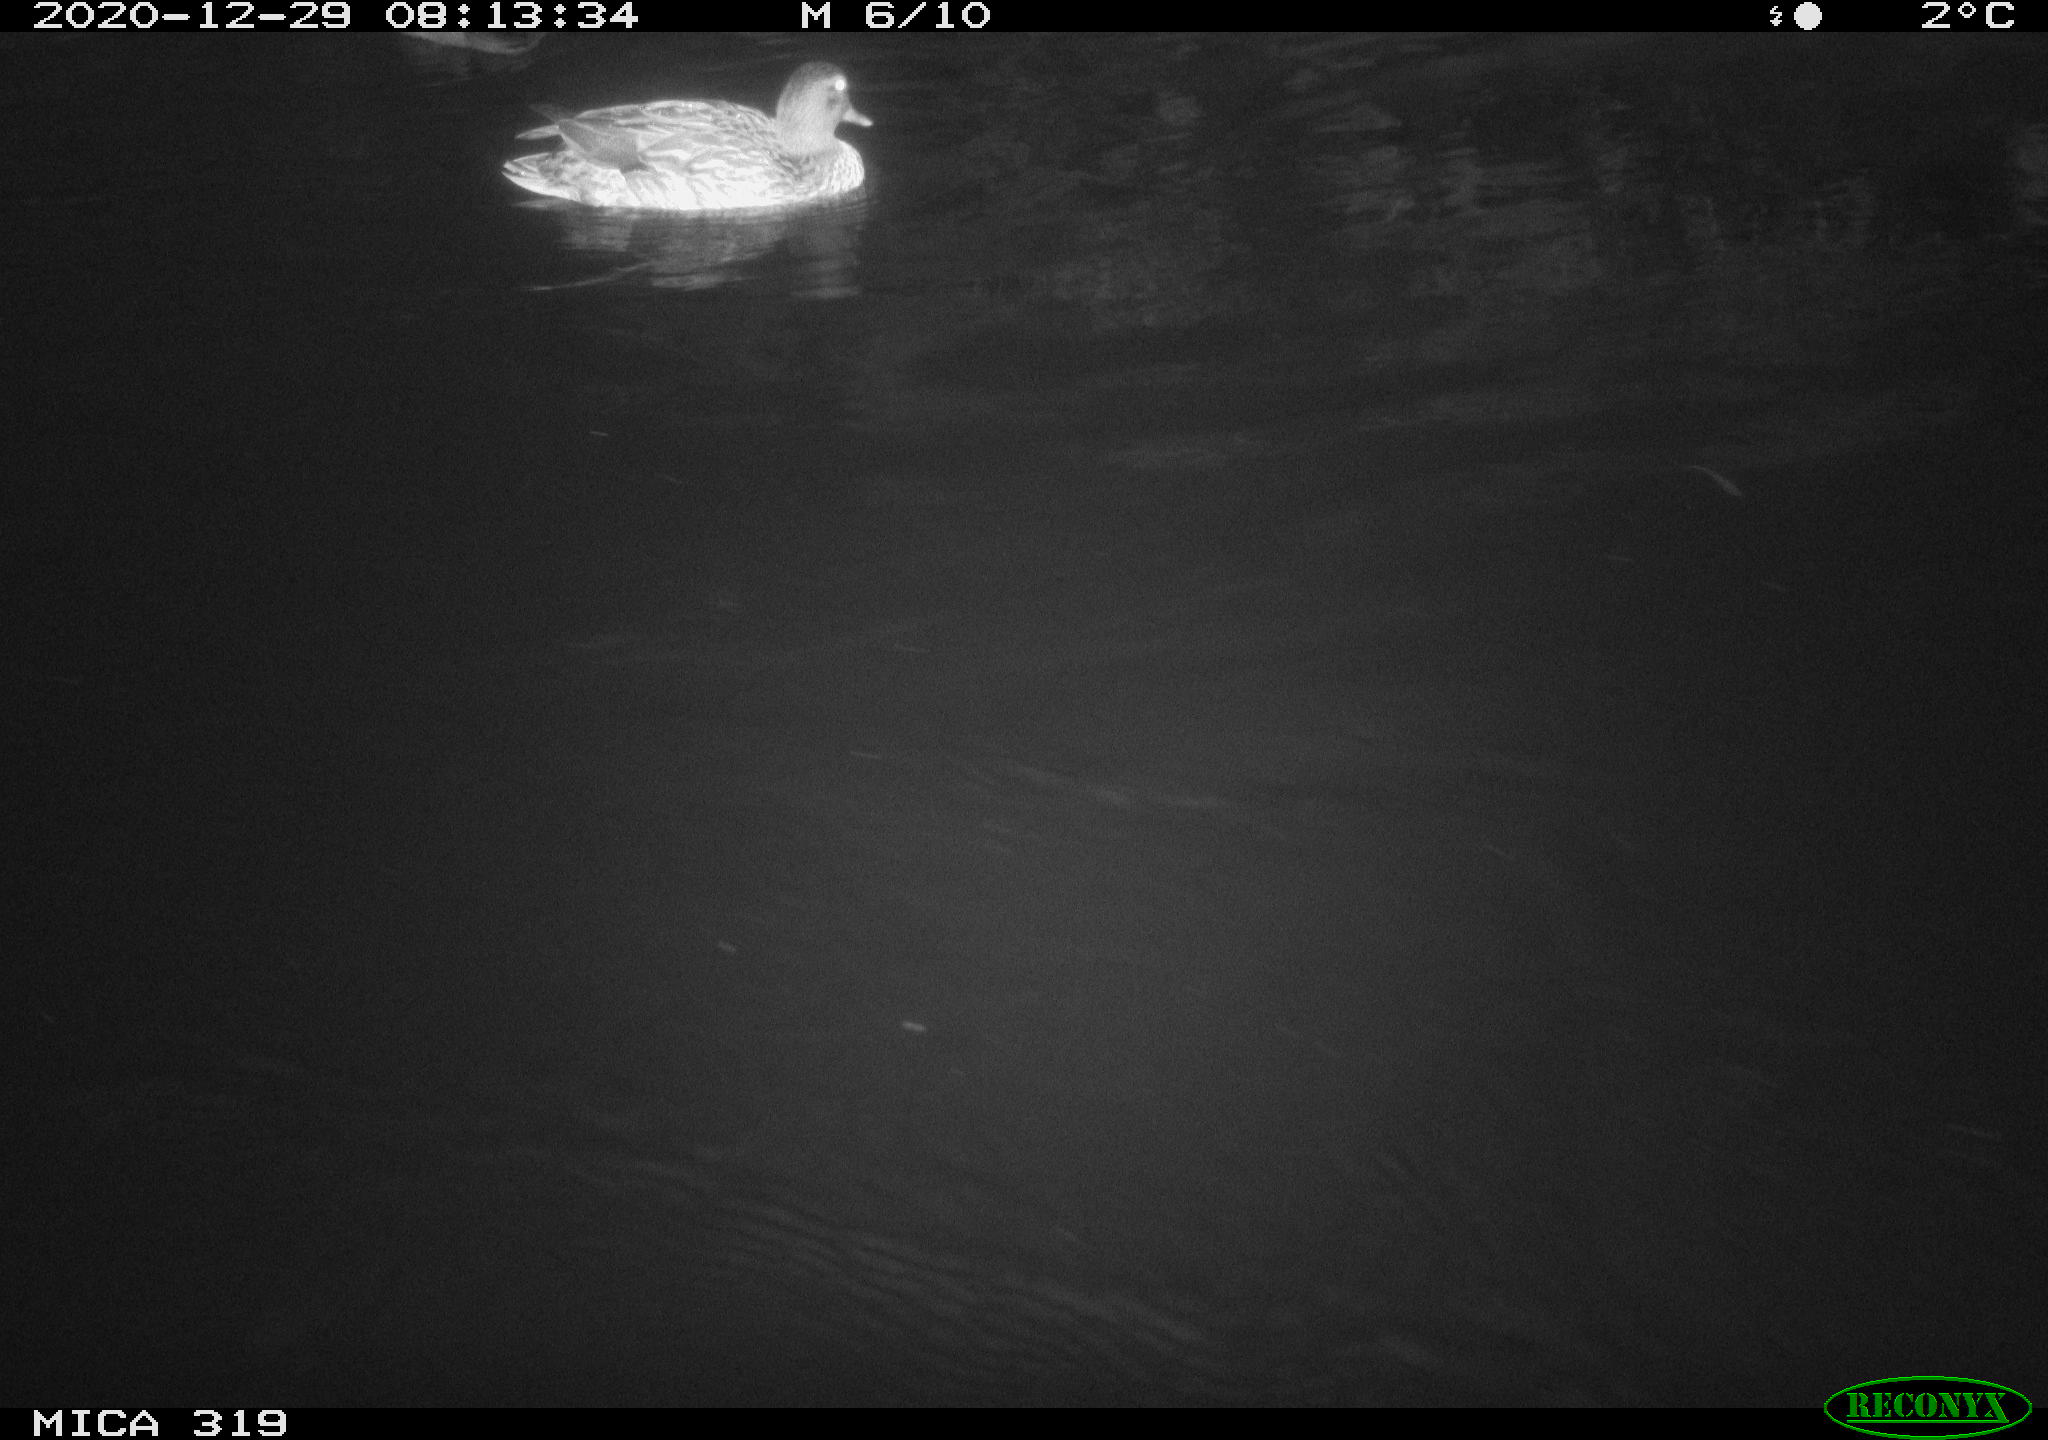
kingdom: Animalia
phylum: Chordata
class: Aves
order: Anseriformes
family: Anatidae
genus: Anas
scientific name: Anas platyrhynchos
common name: Mallard
